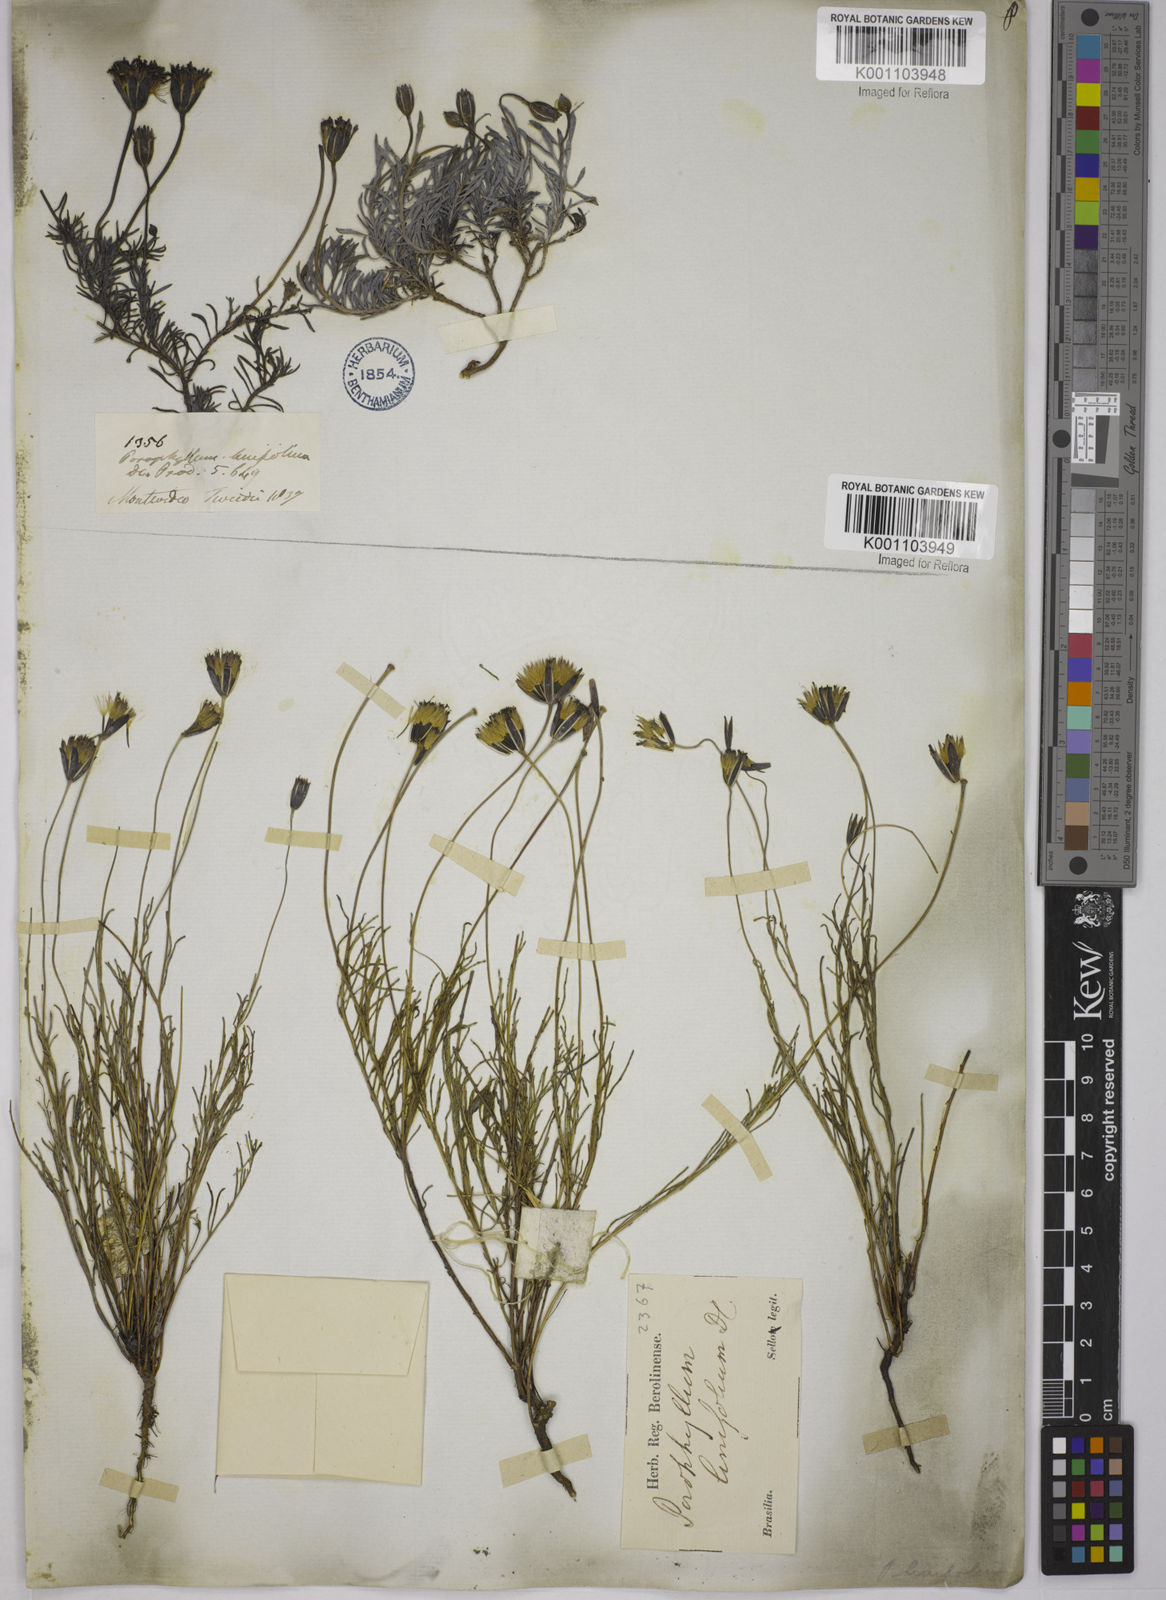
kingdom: Plantae
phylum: Tracheophyta
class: Magnoliopsida
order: Asterales
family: Asteraceae
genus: Porophyllum
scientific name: Porophyllum linifolium
